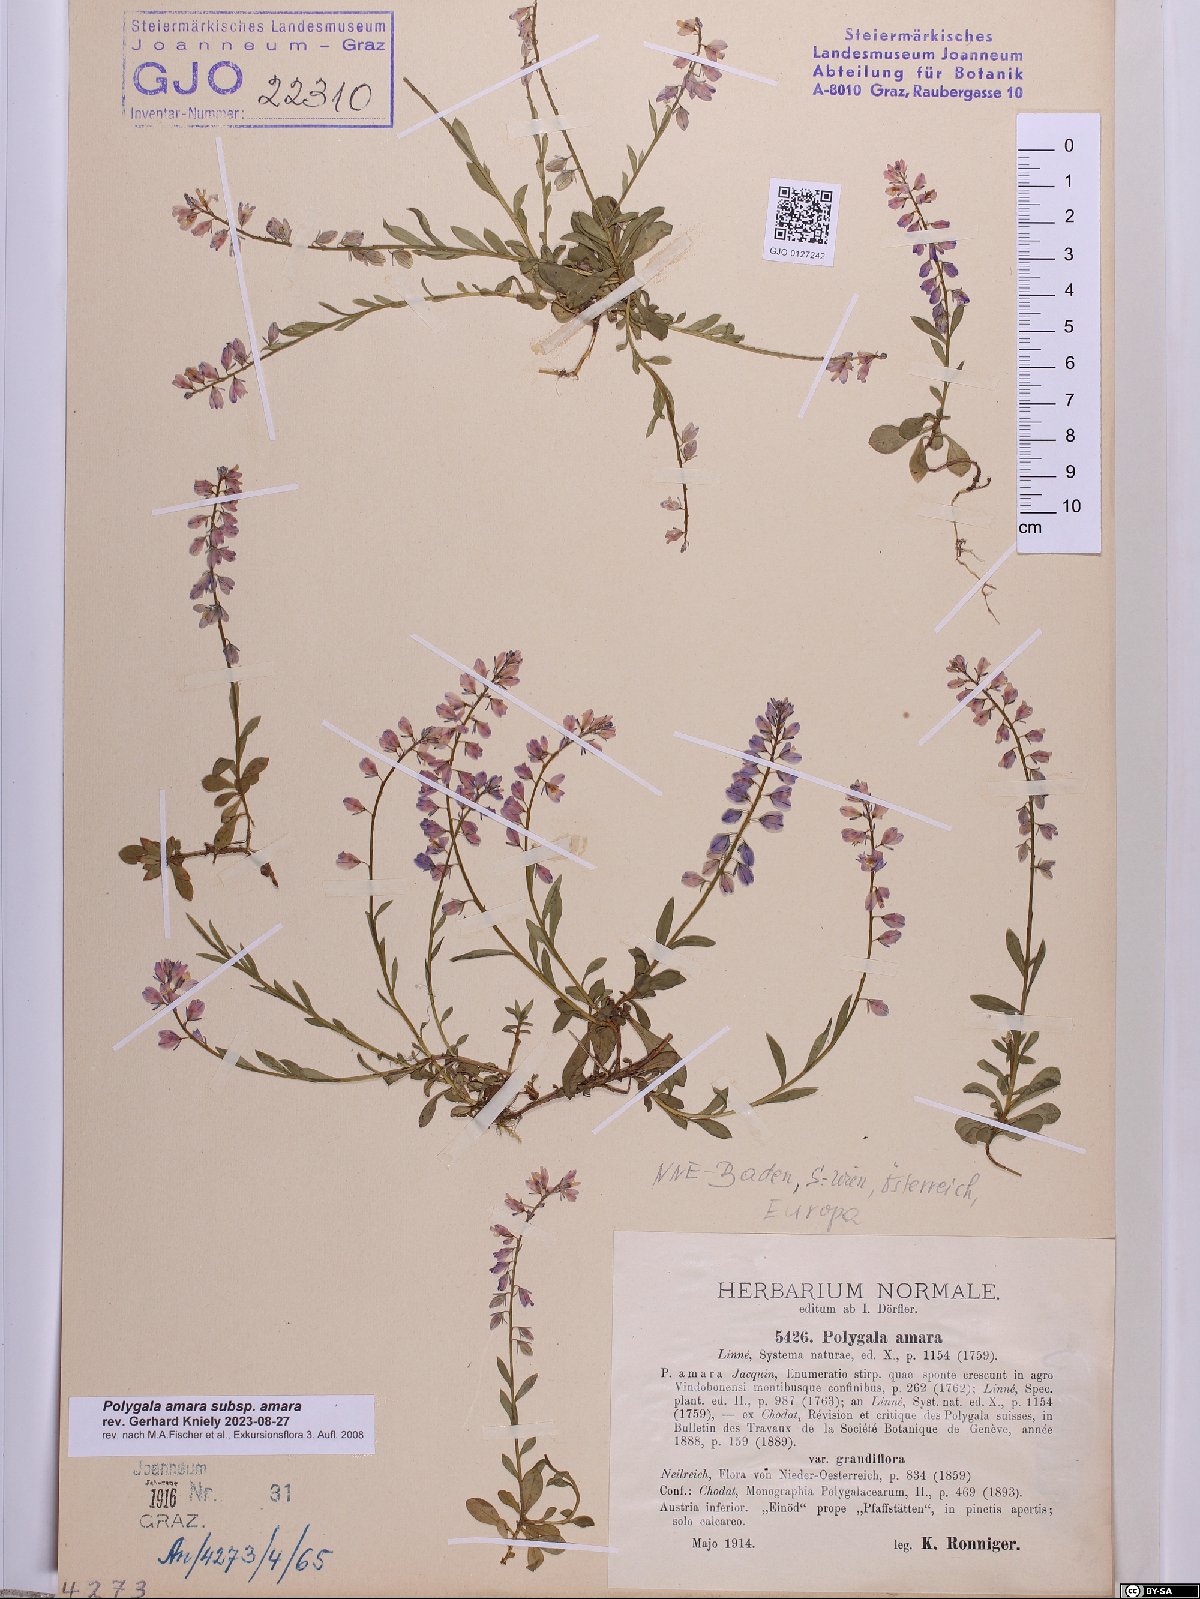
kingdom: Plantae
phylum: Tracheophyta
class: Magnoliopsida
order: Fabales
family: Polygalaceae
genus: Polygala
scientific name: Polygala amara
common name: Milkwort
